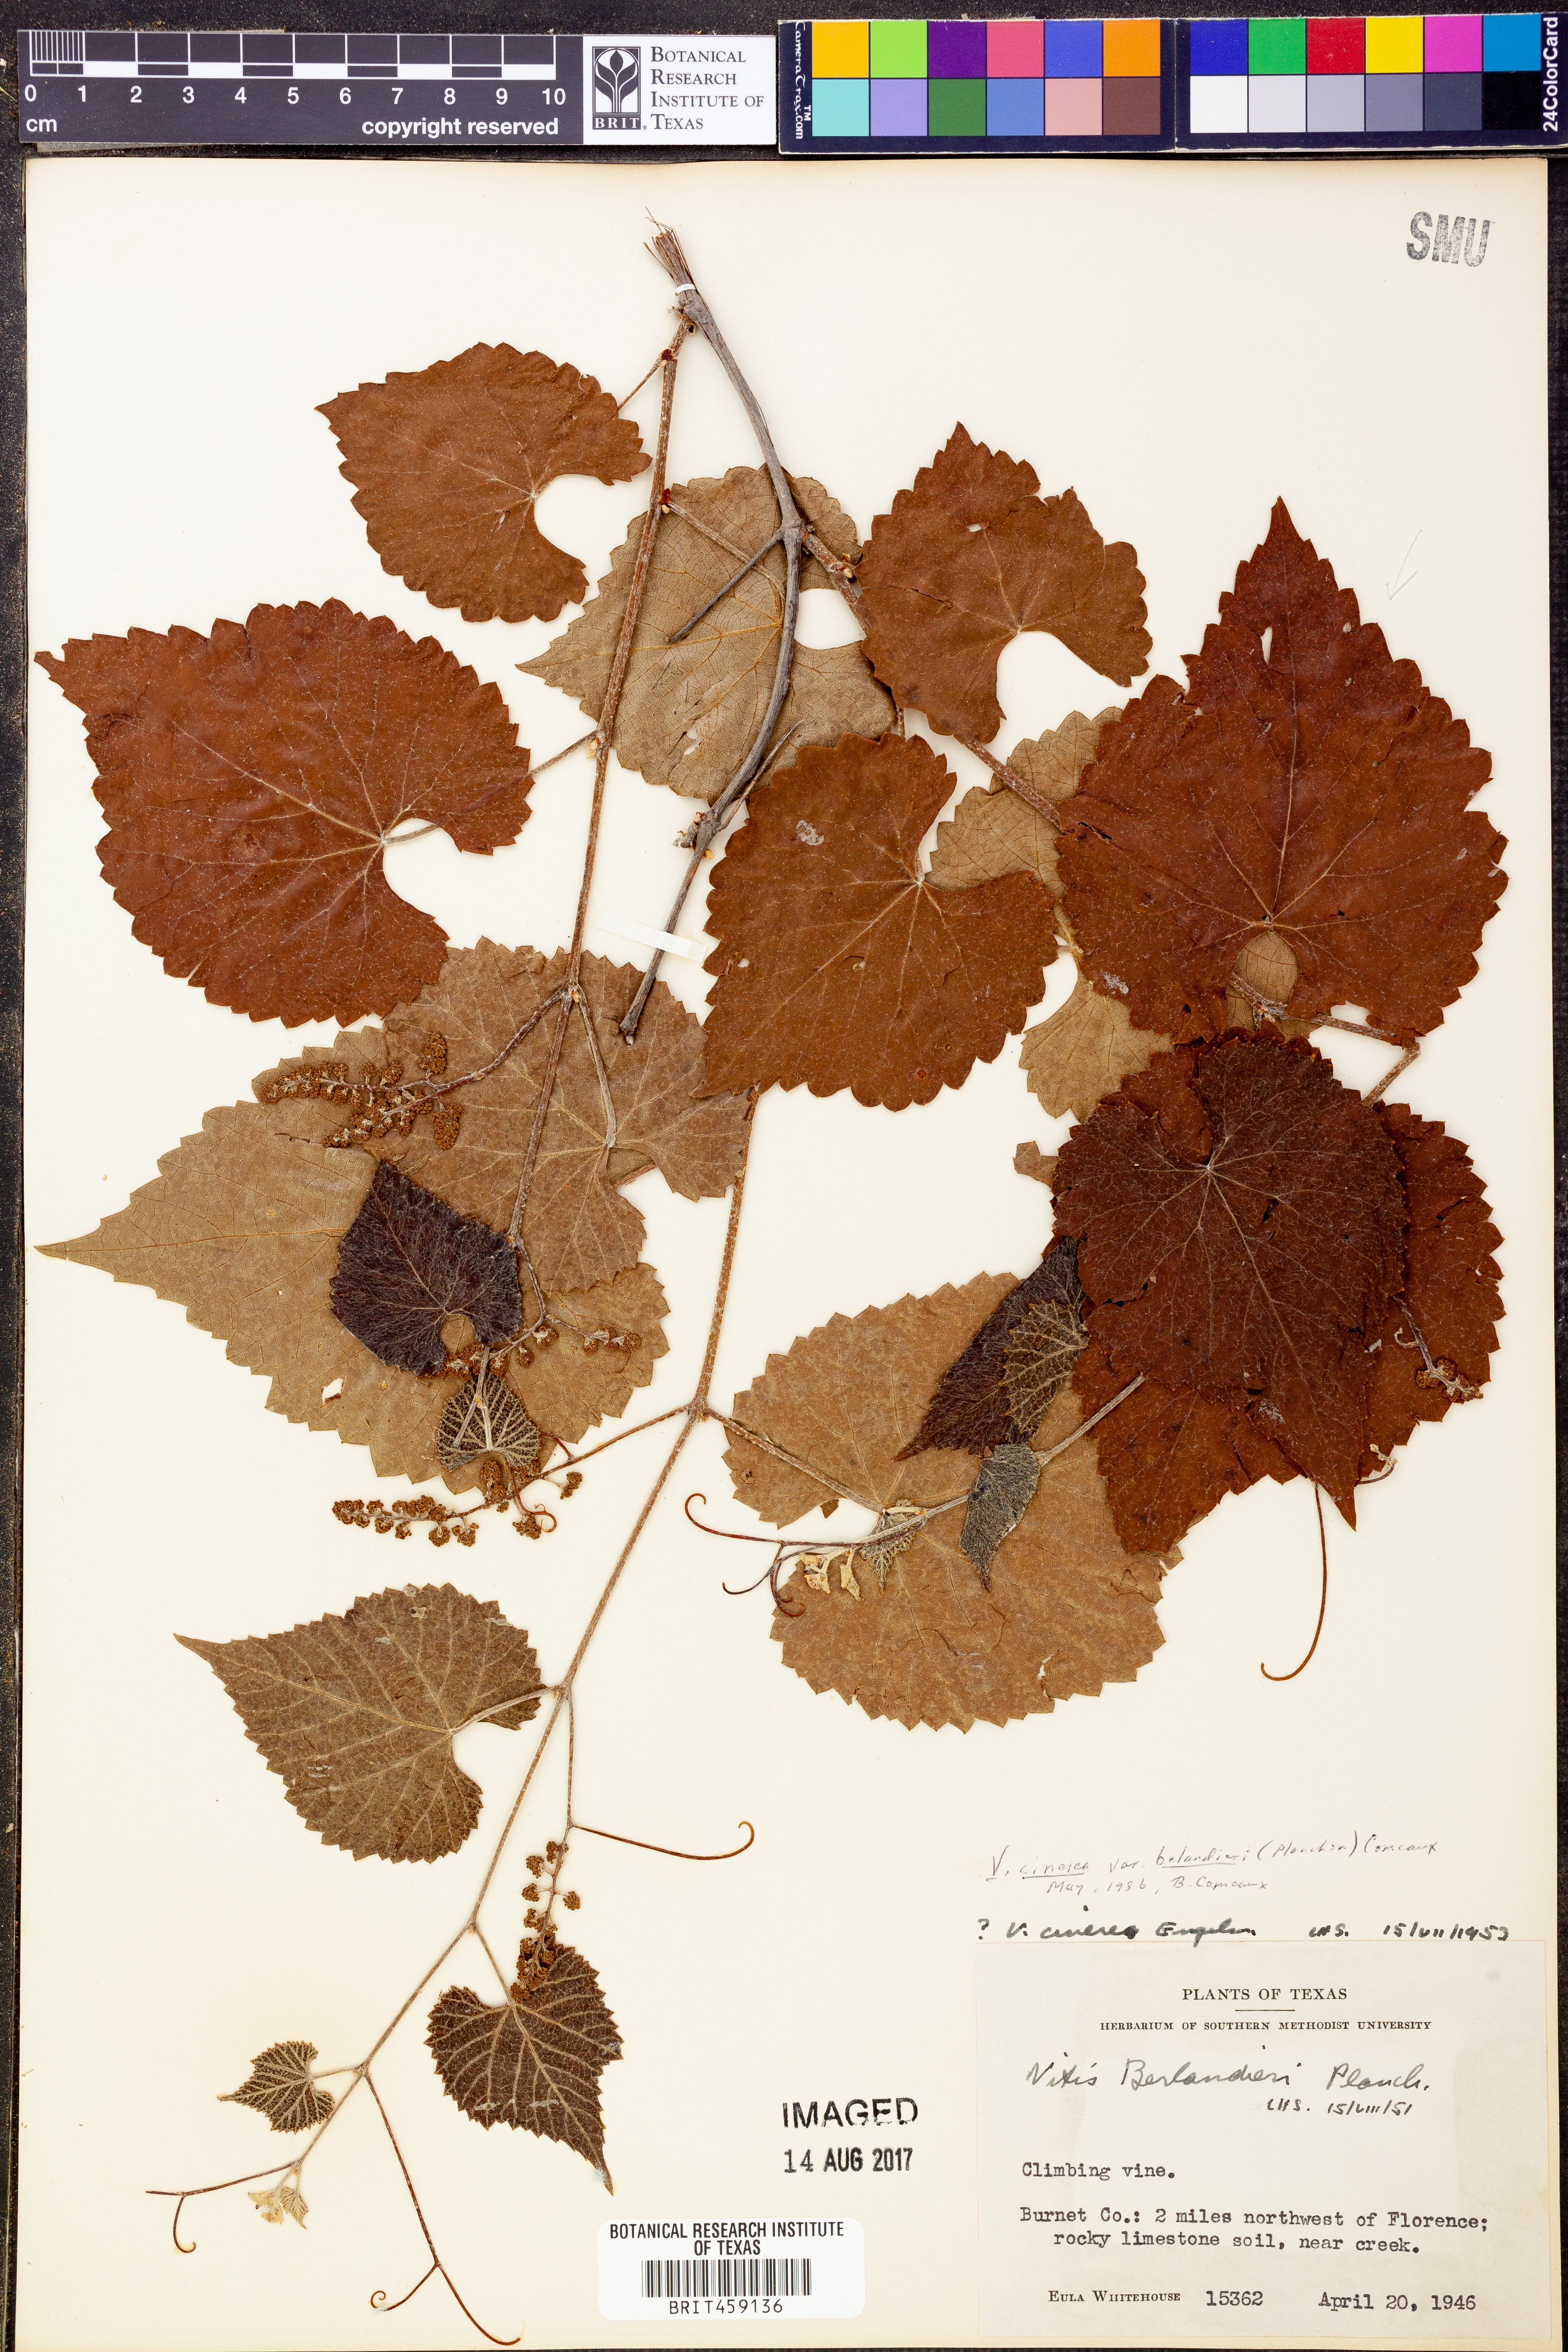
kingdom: Plantae
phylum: Tracheophyta
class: Magnoliopsida
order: Vitales
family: Vitaceae
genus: Vitis
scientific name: Vitis cinerea
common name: Ashy grape
